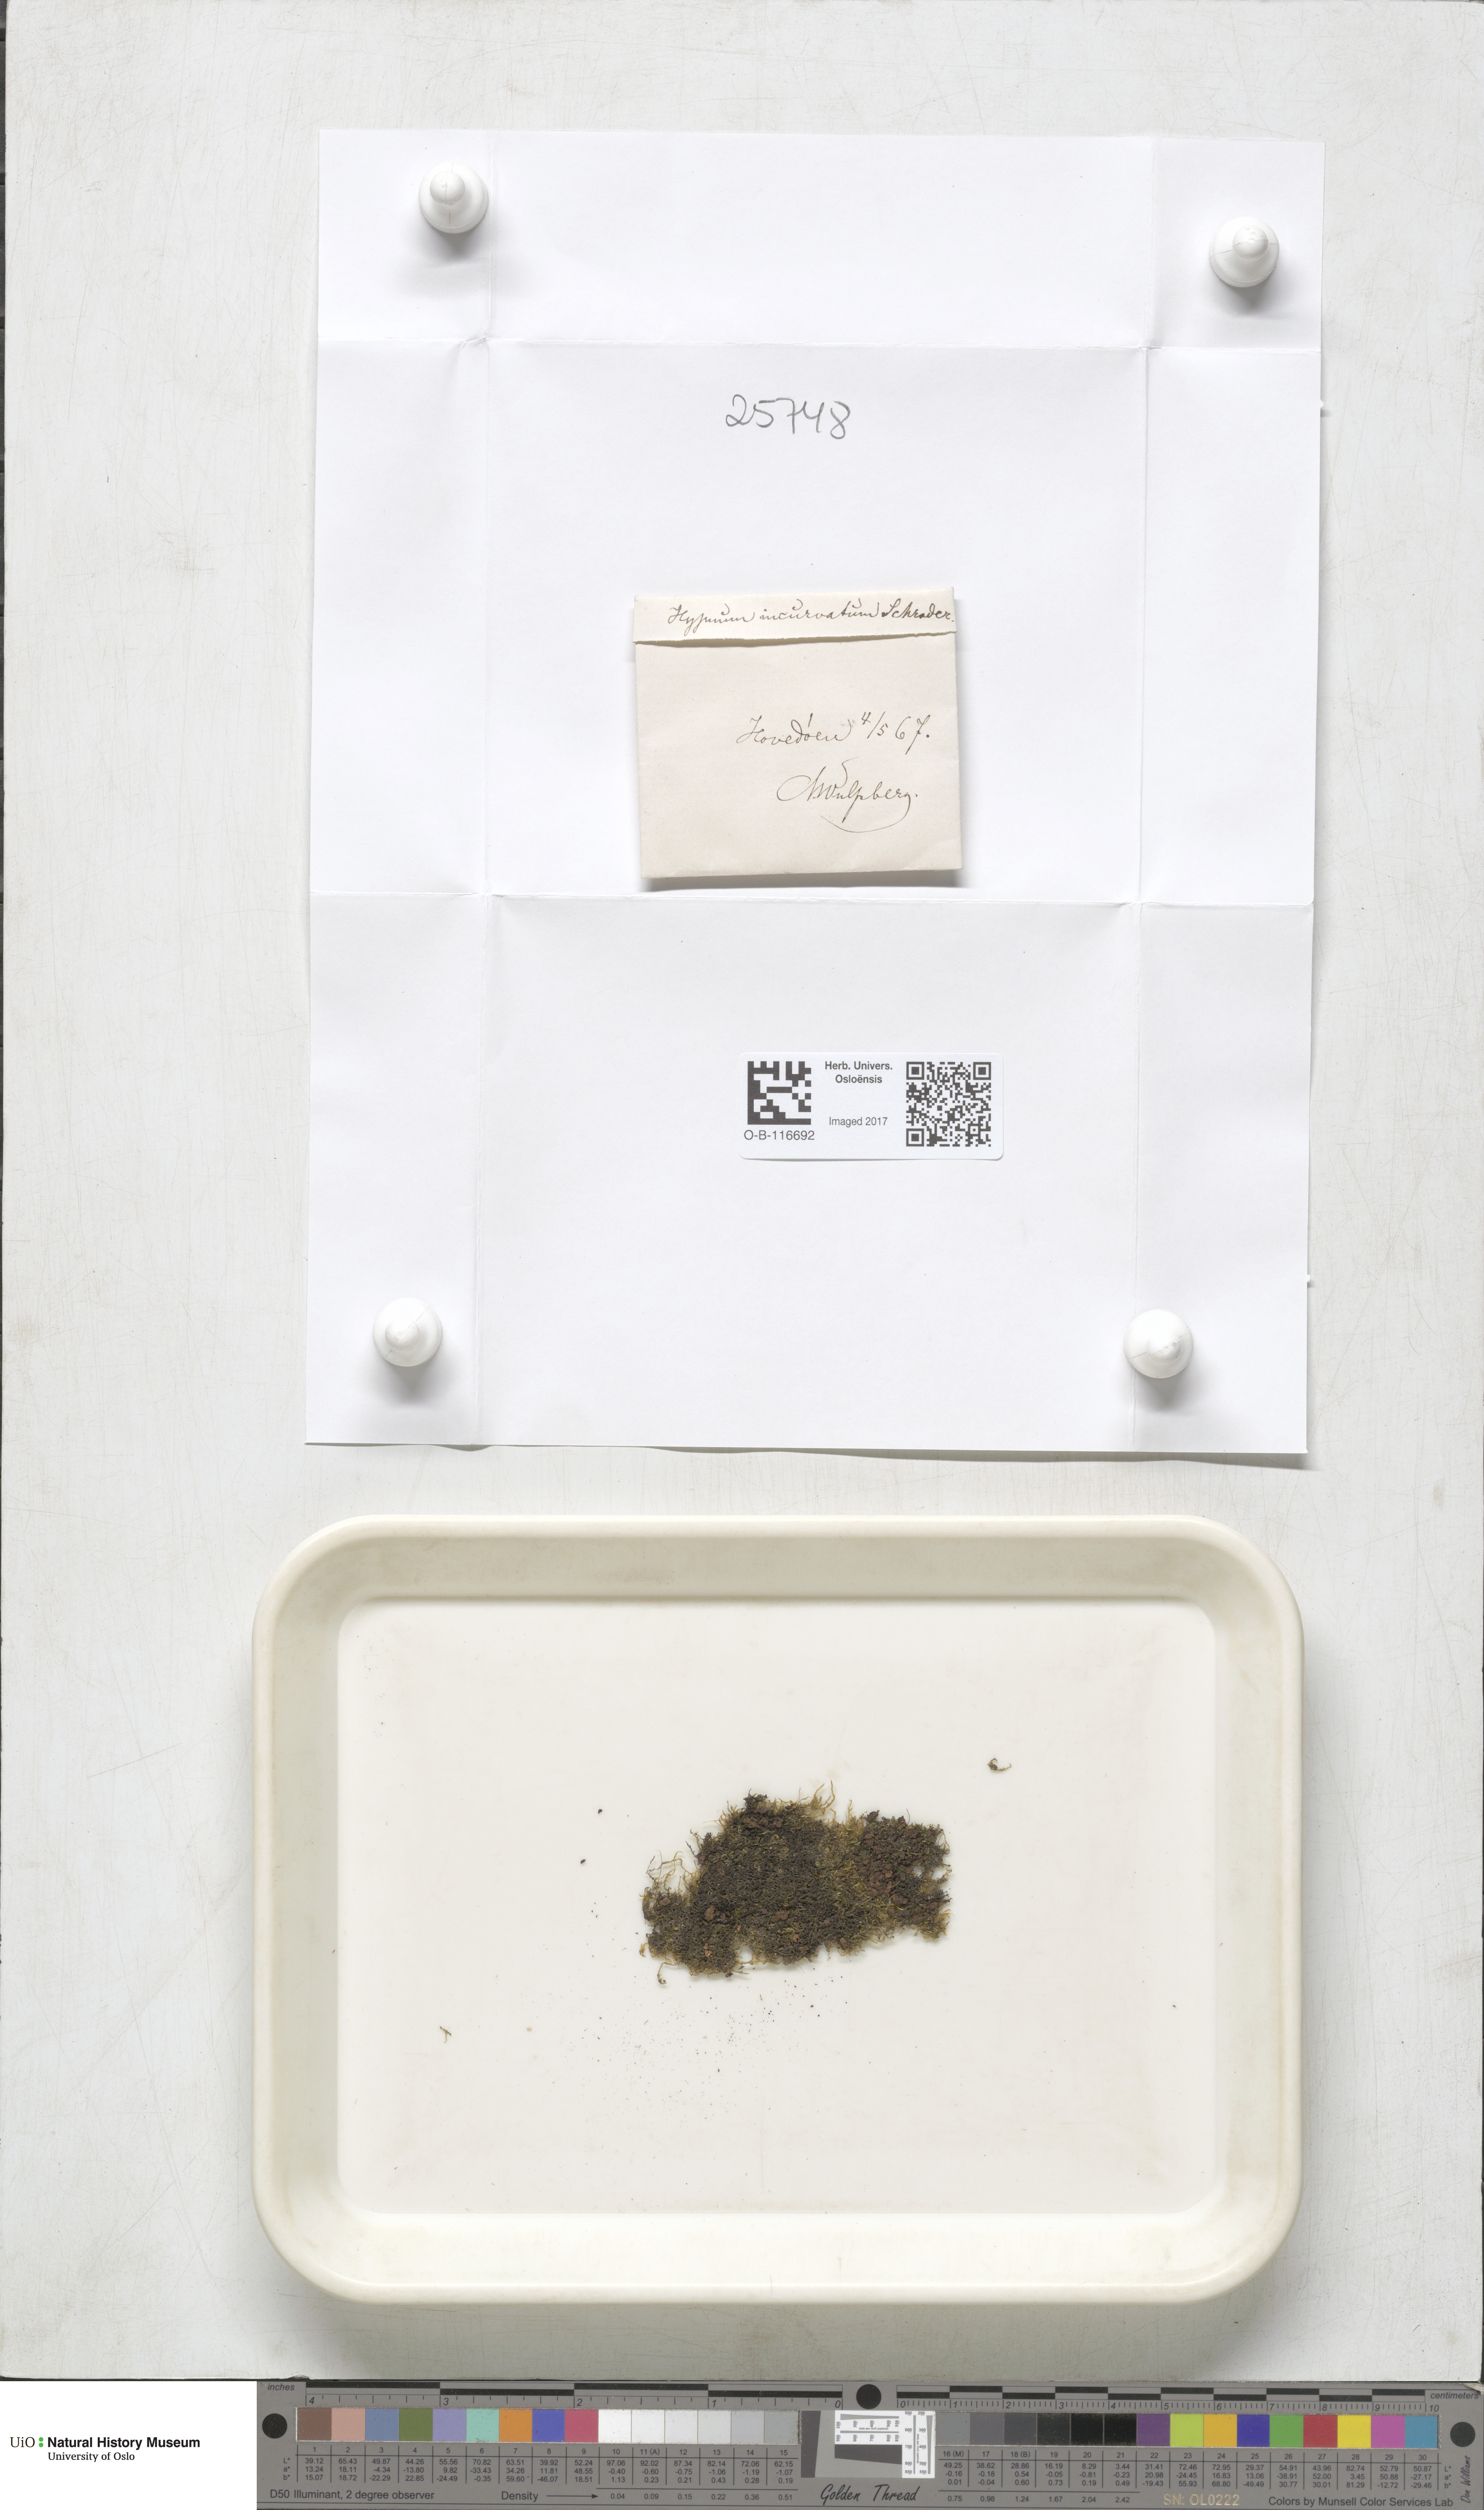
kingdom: Plantae
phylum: Bryophyta
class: Bryopsida
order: Hypnales
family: Pylaisiaceae
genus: Homomallium
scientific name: Homomallium incurvatum
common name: Incurved feather-moss
